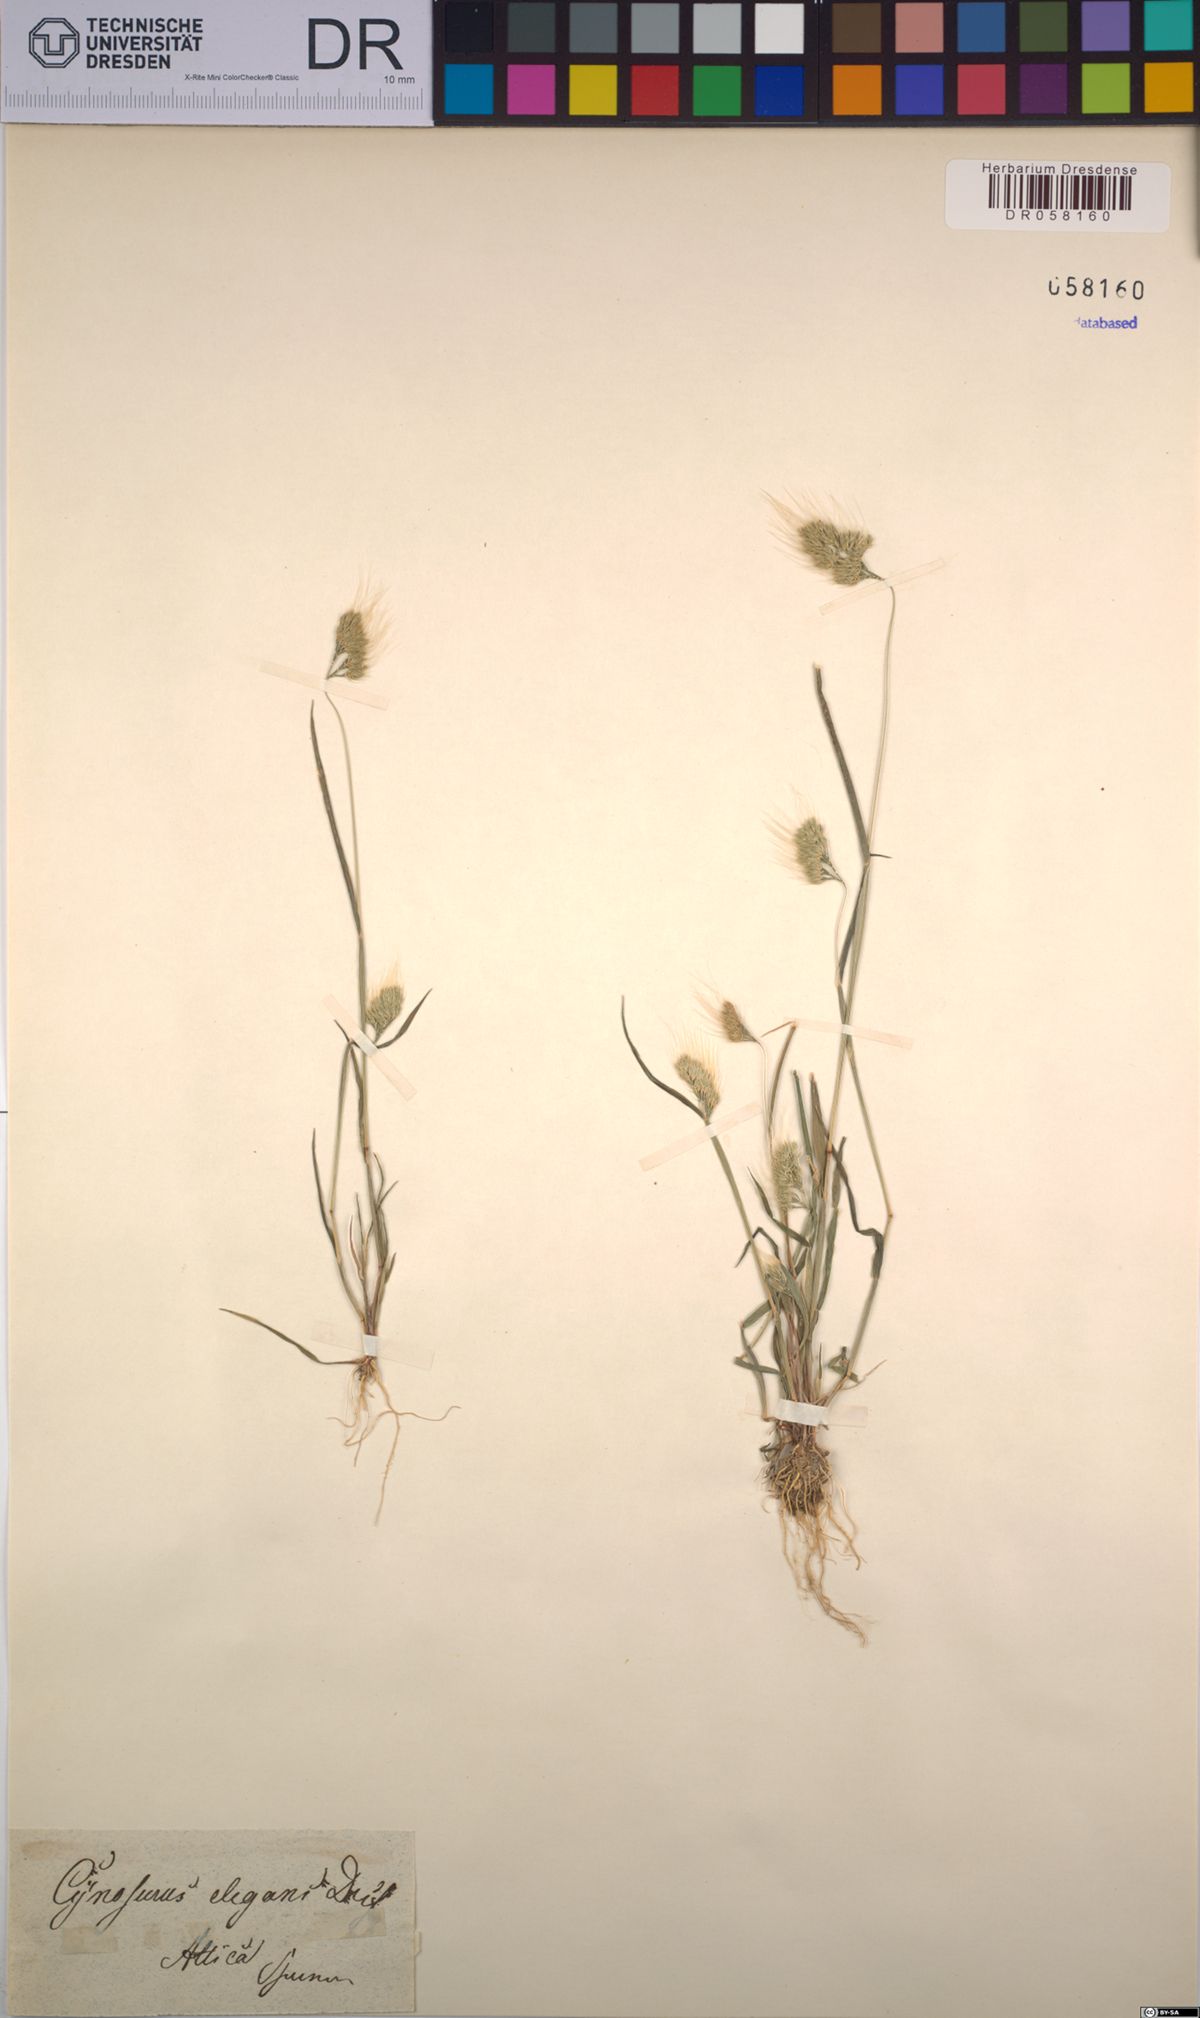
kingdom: Plantae
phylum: Tracheophyta
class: Liliopsida
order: Poales
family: Poaceae
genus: Cynosurus
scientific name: Cynosurus elegans
